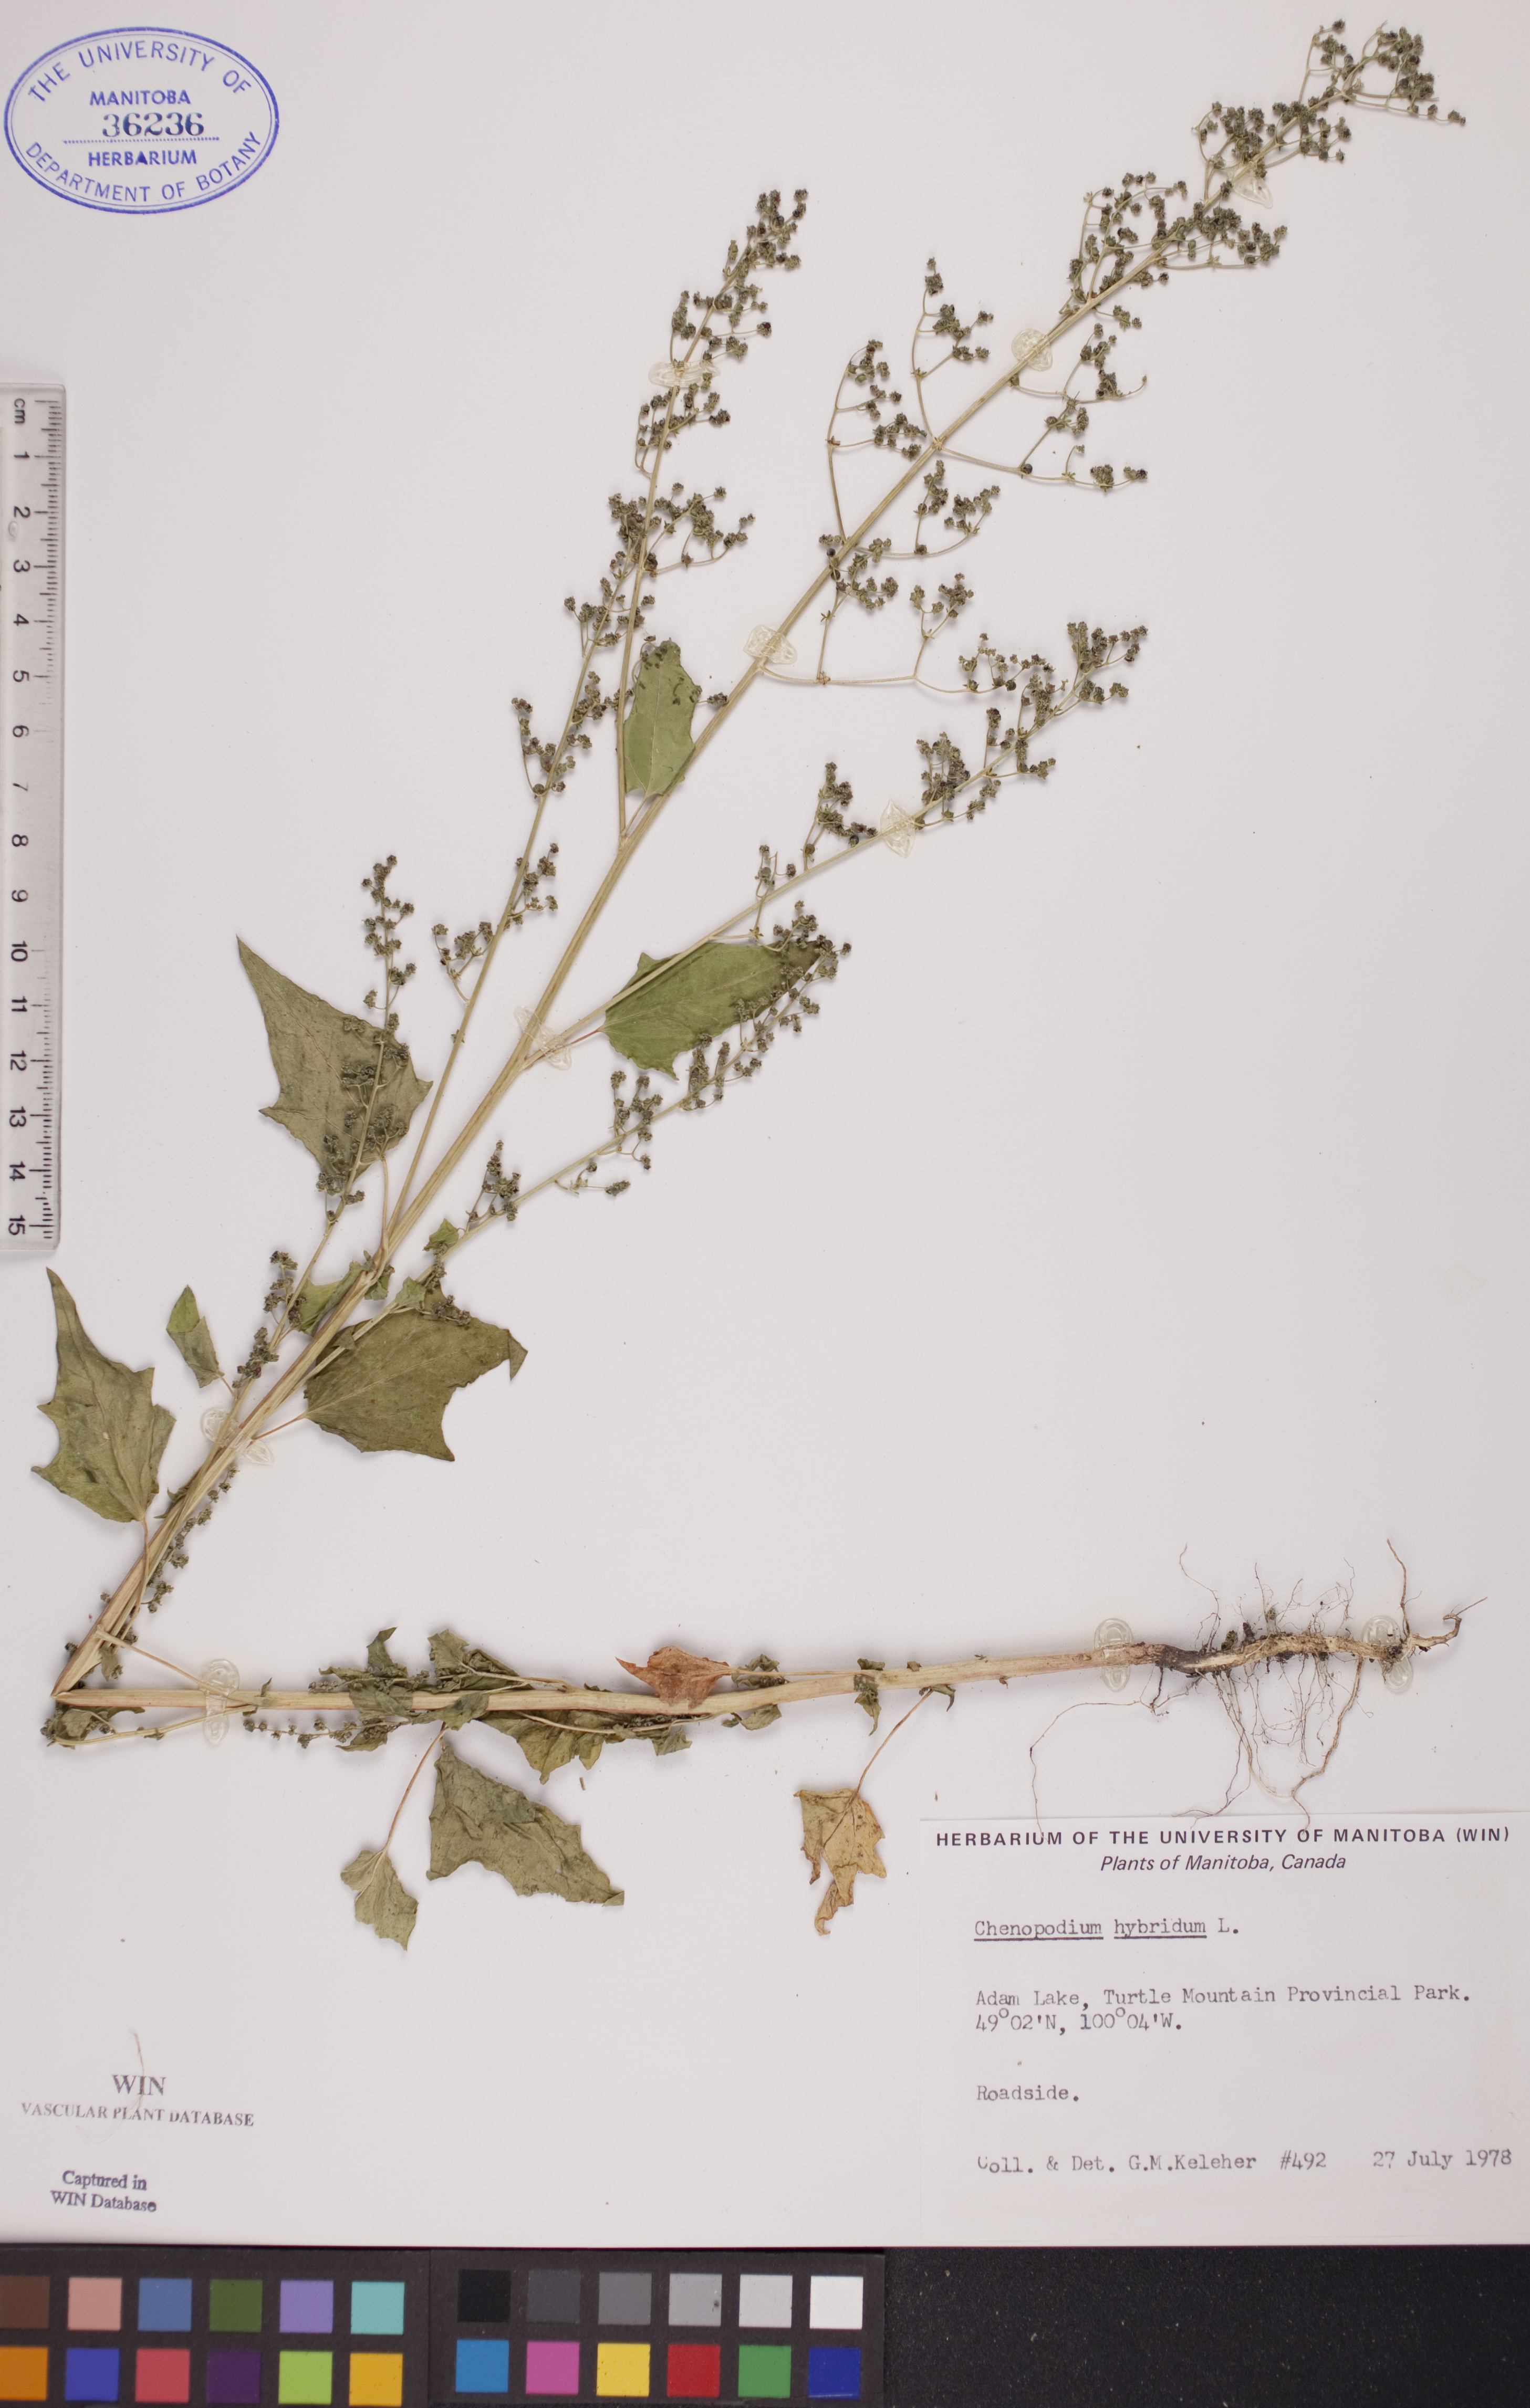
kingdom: Plantae
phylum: Tracheophyta
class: Magnoliopsida
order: Caryophyllales
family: Amaranthaceae
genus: Chenopodiastrum
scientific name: Chenopodiastrum hybridum
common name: Mapleleaf goosefoot
